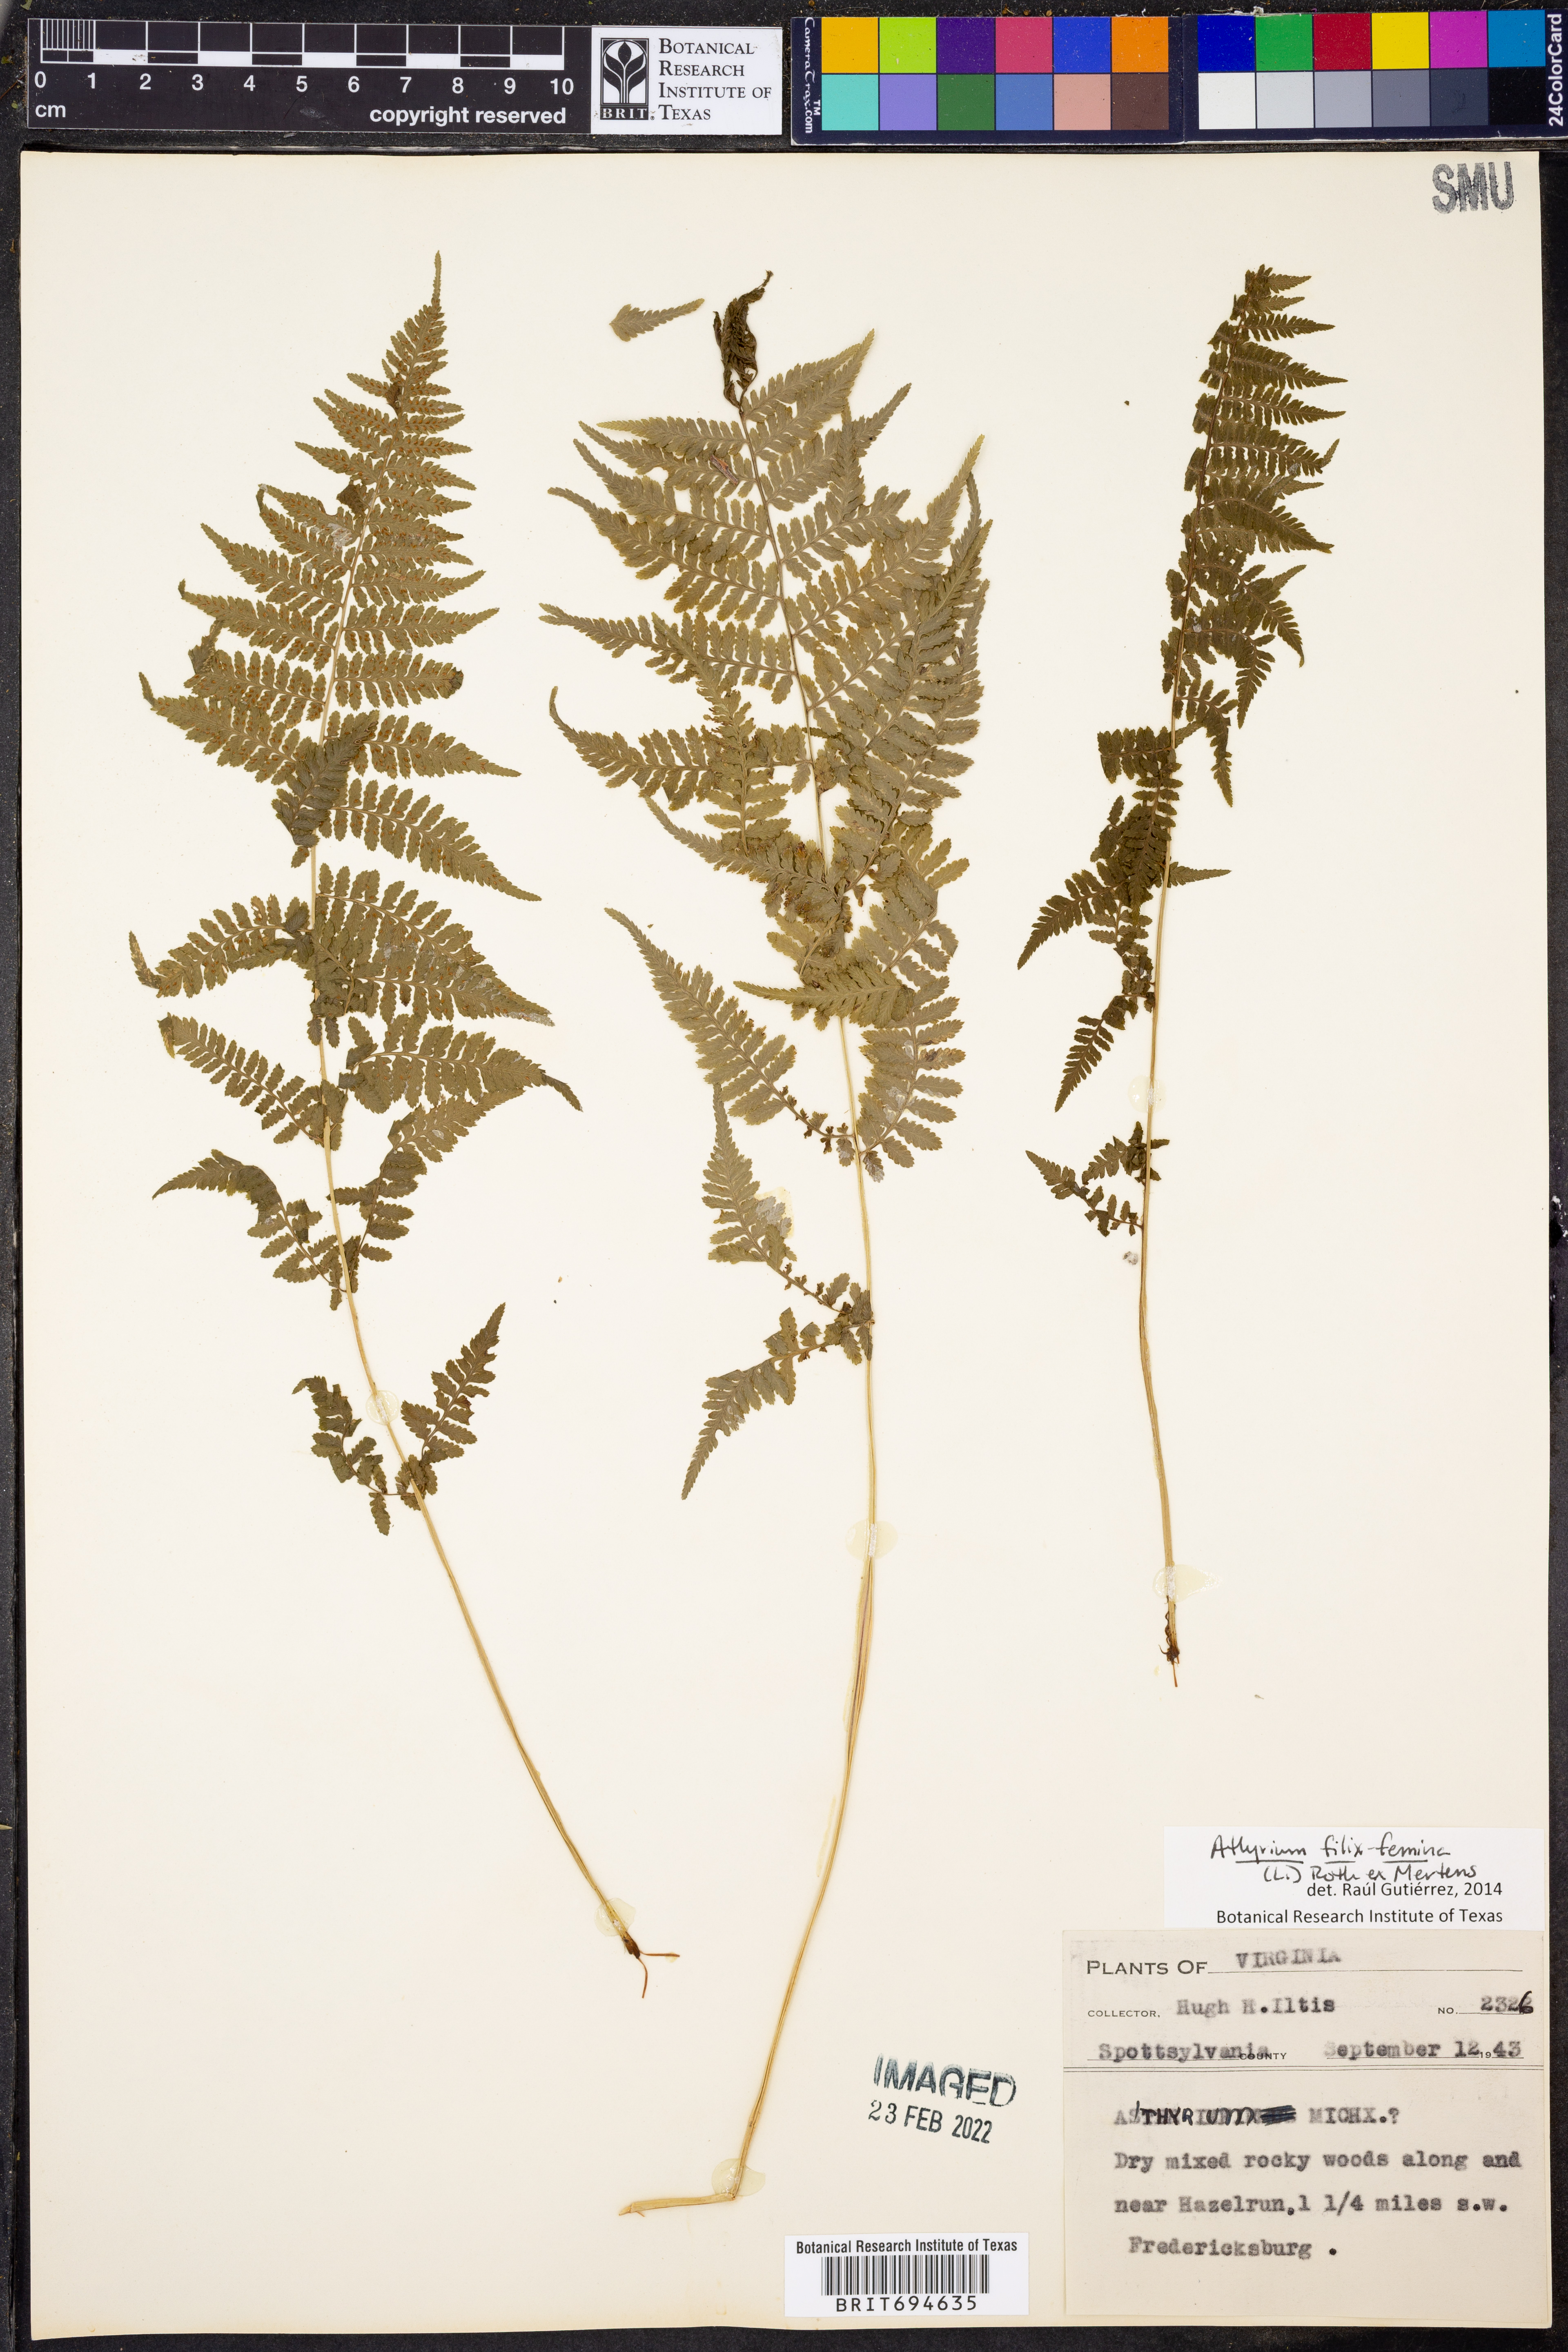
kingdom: Plantae
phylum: Tracheophyta
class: Polypodiopsida
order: Polypodiales
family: Athyriaceae
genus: Athyrium
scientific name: Athyrium filix-femina
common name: Lady fern
